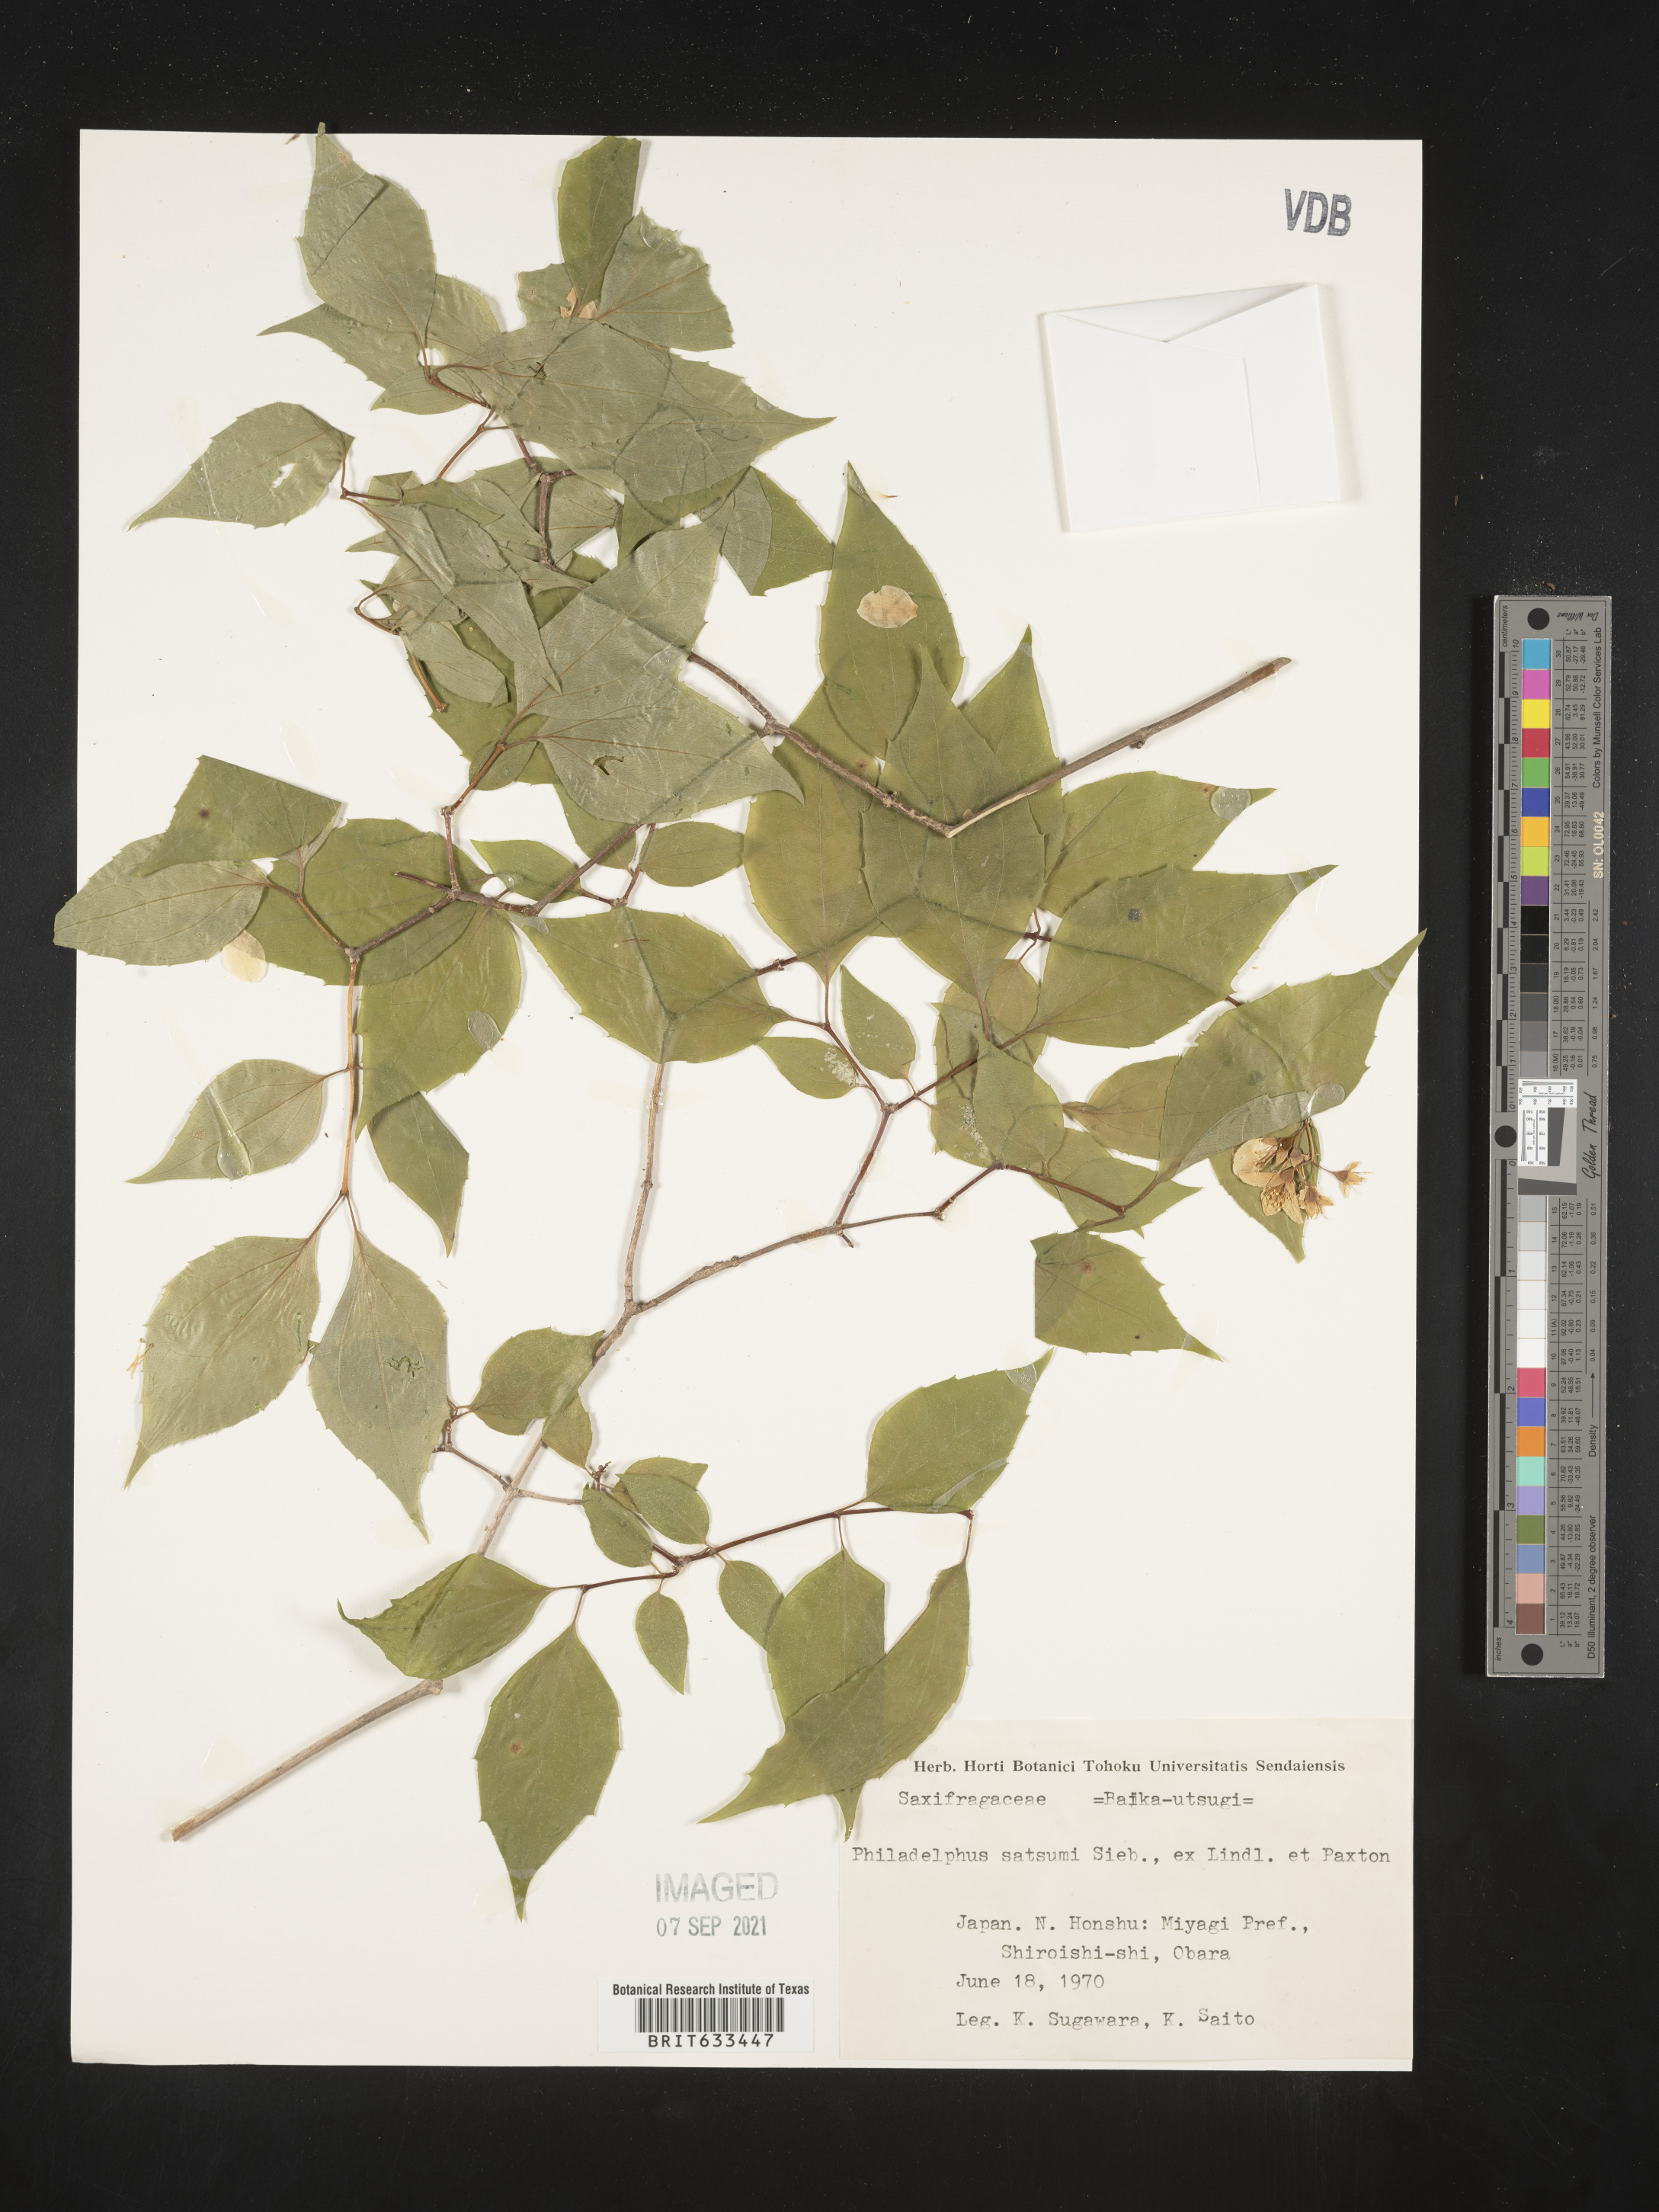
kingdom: Plantae
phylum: Tracheophyta
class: Magnoliopsida
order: Cornales
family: Hydrangeaceae
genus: Philadelphus
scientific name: Philadelphus
